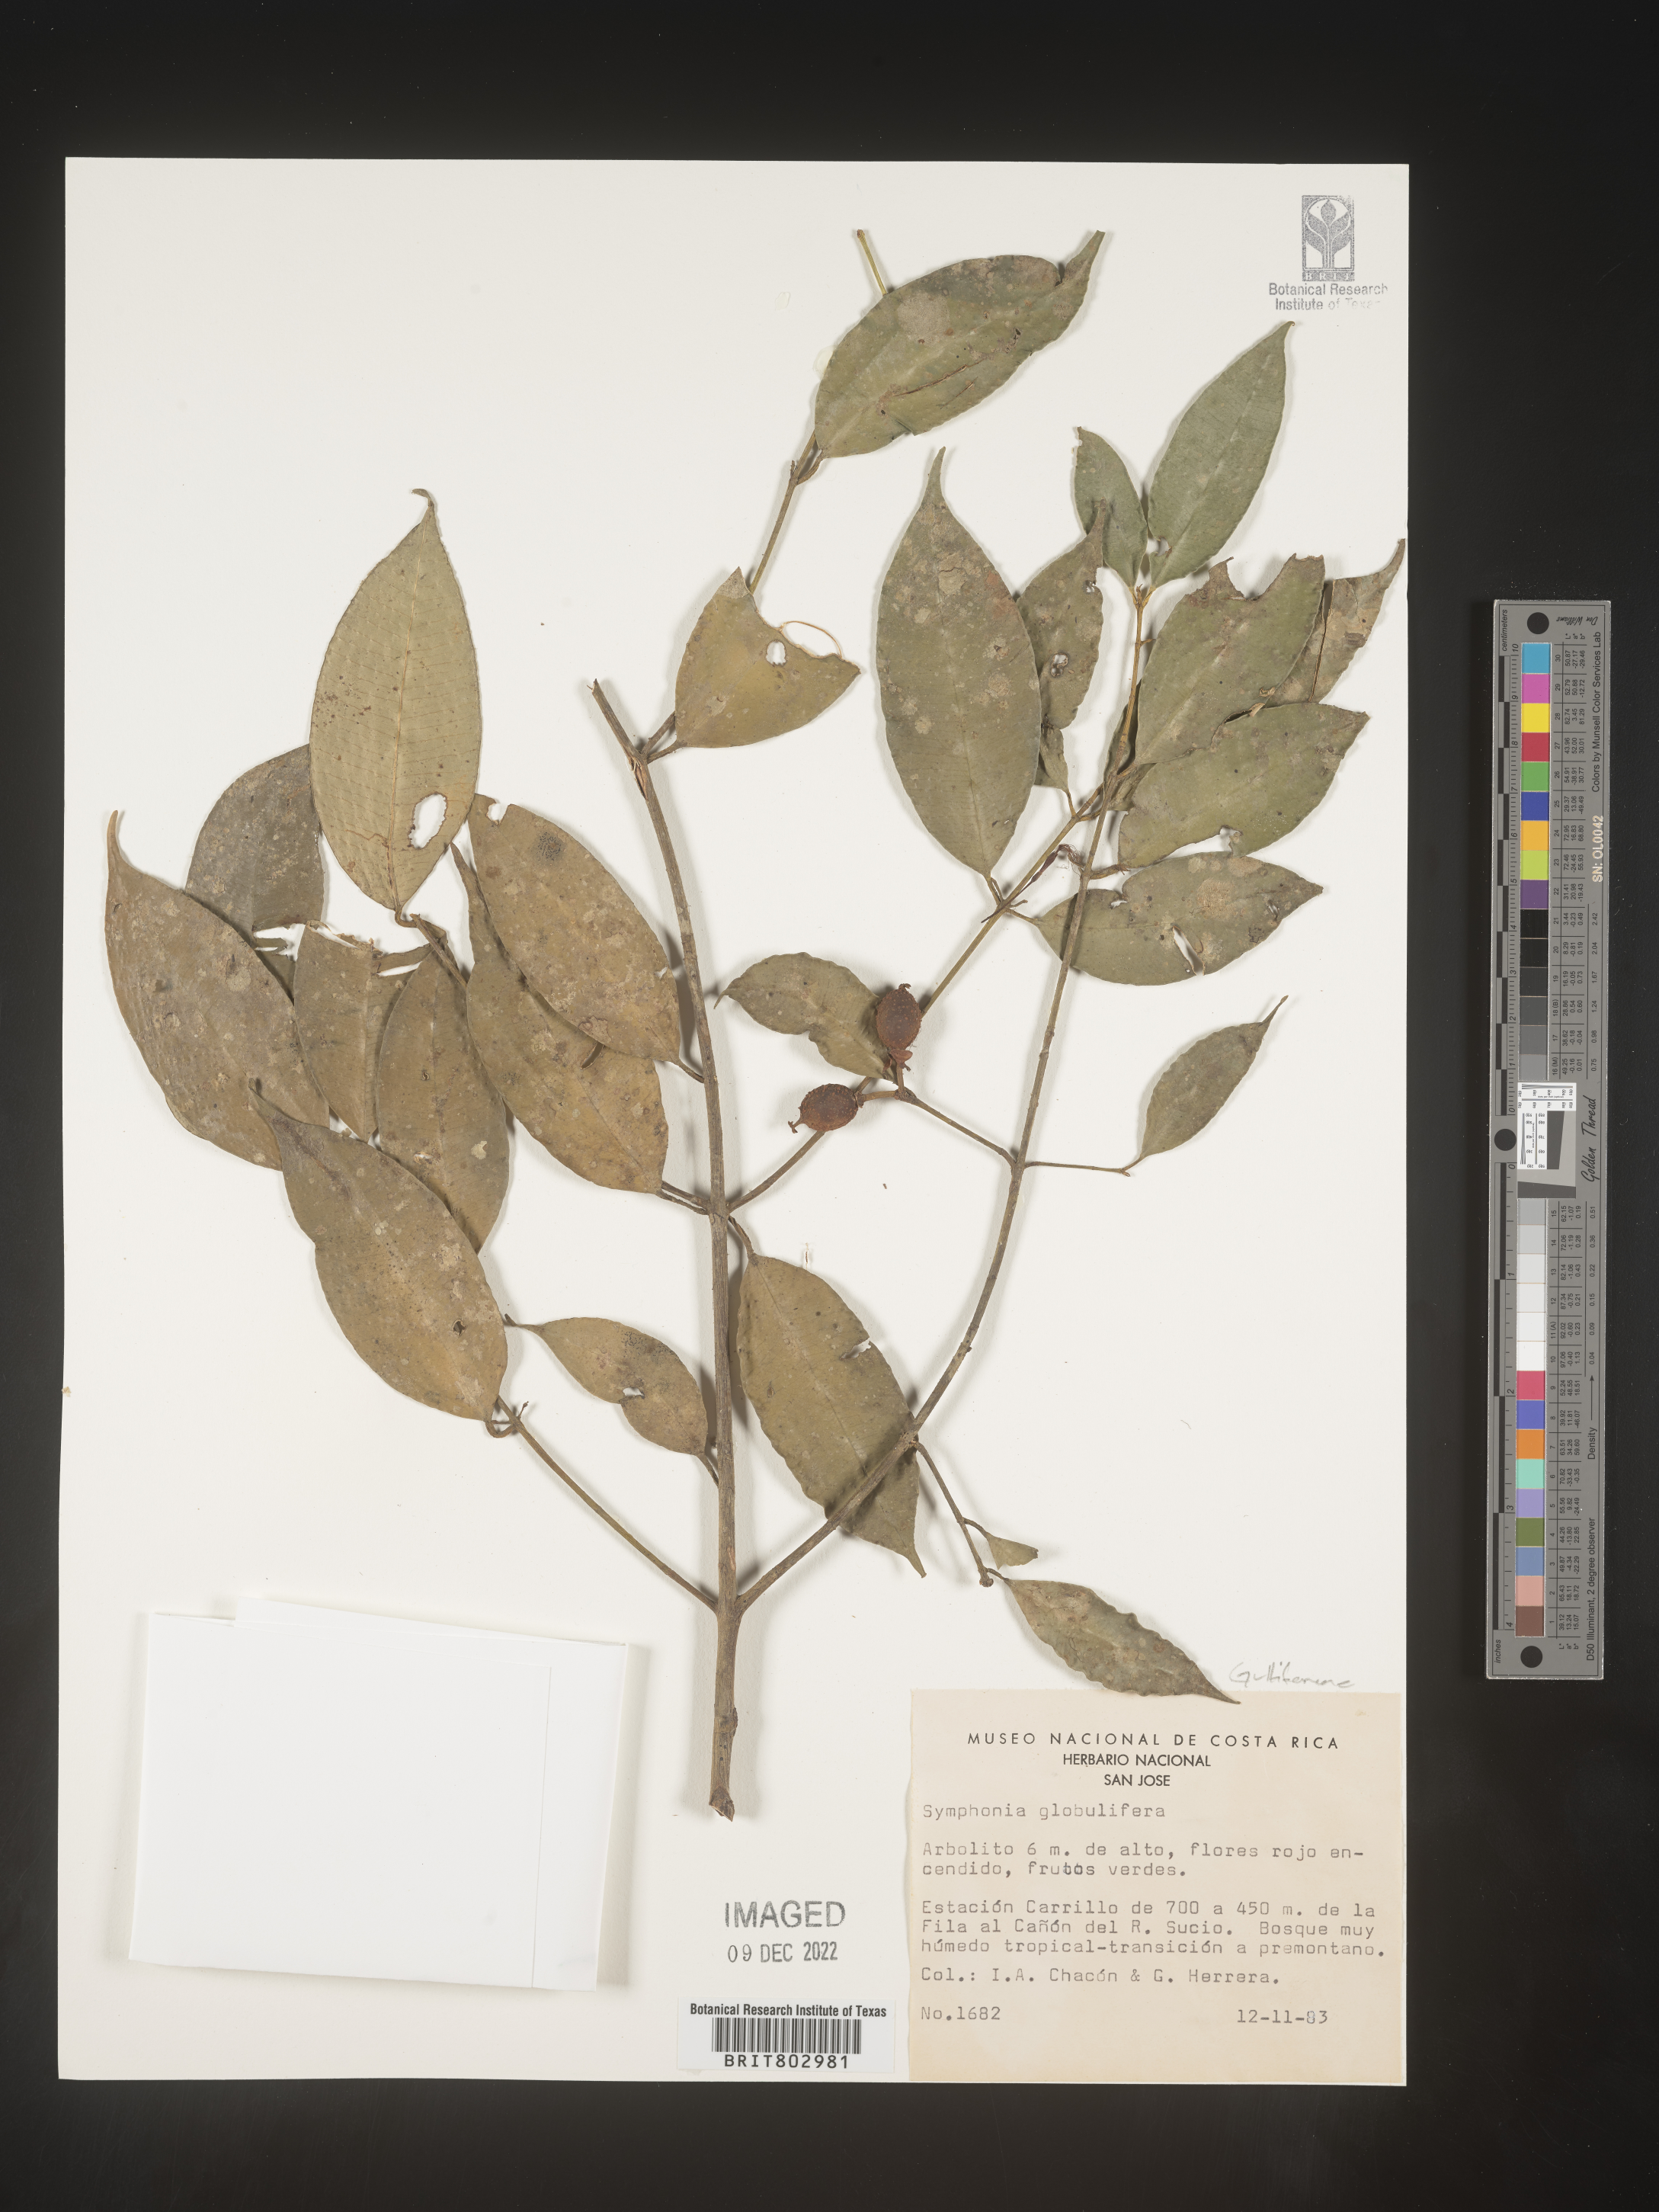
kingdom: Plantae
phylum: Tracheophyta
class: Magnoliopsida
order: Malpighiales
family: Clusiaceae
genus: Symphonia
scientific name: Symphonia globulifera
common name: Boarwood
